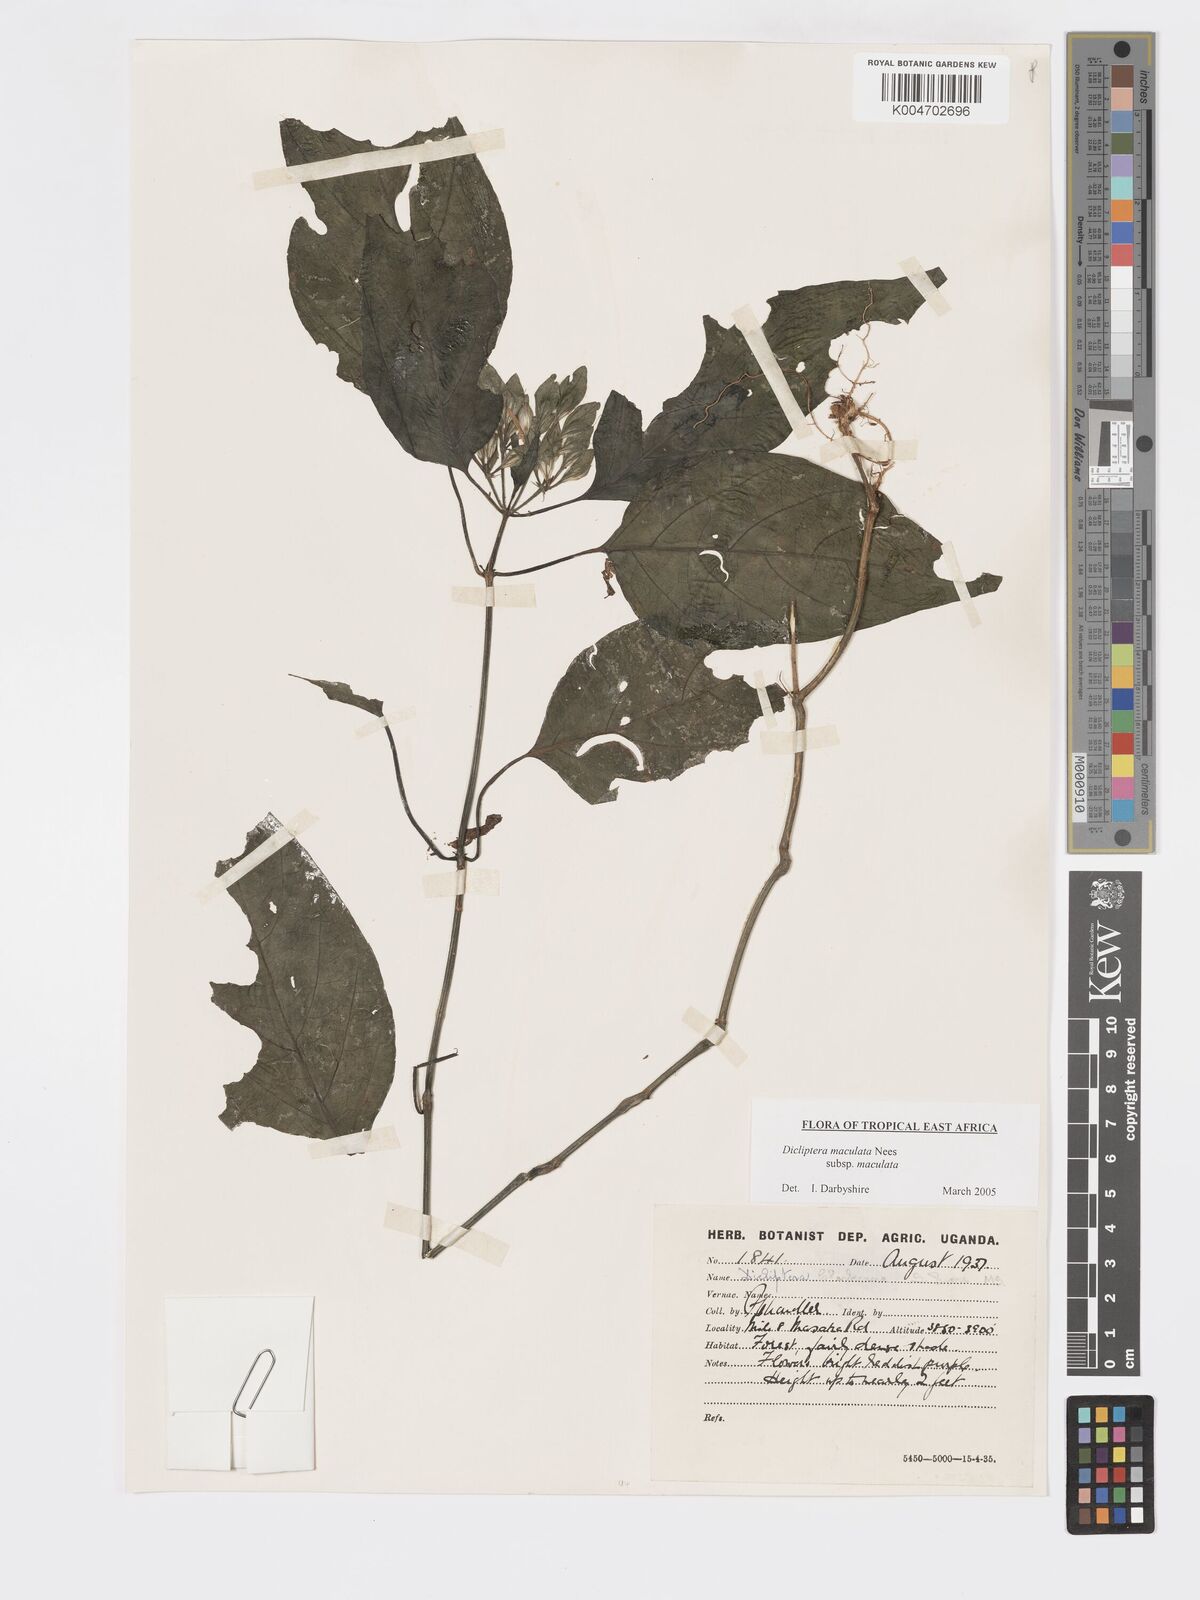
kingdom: Plantae
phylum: Tracheophyta
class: Magnoliopsida
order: Lamiales
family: Acanthaceae
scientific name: Acanthaceae
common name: Acanthaceae
